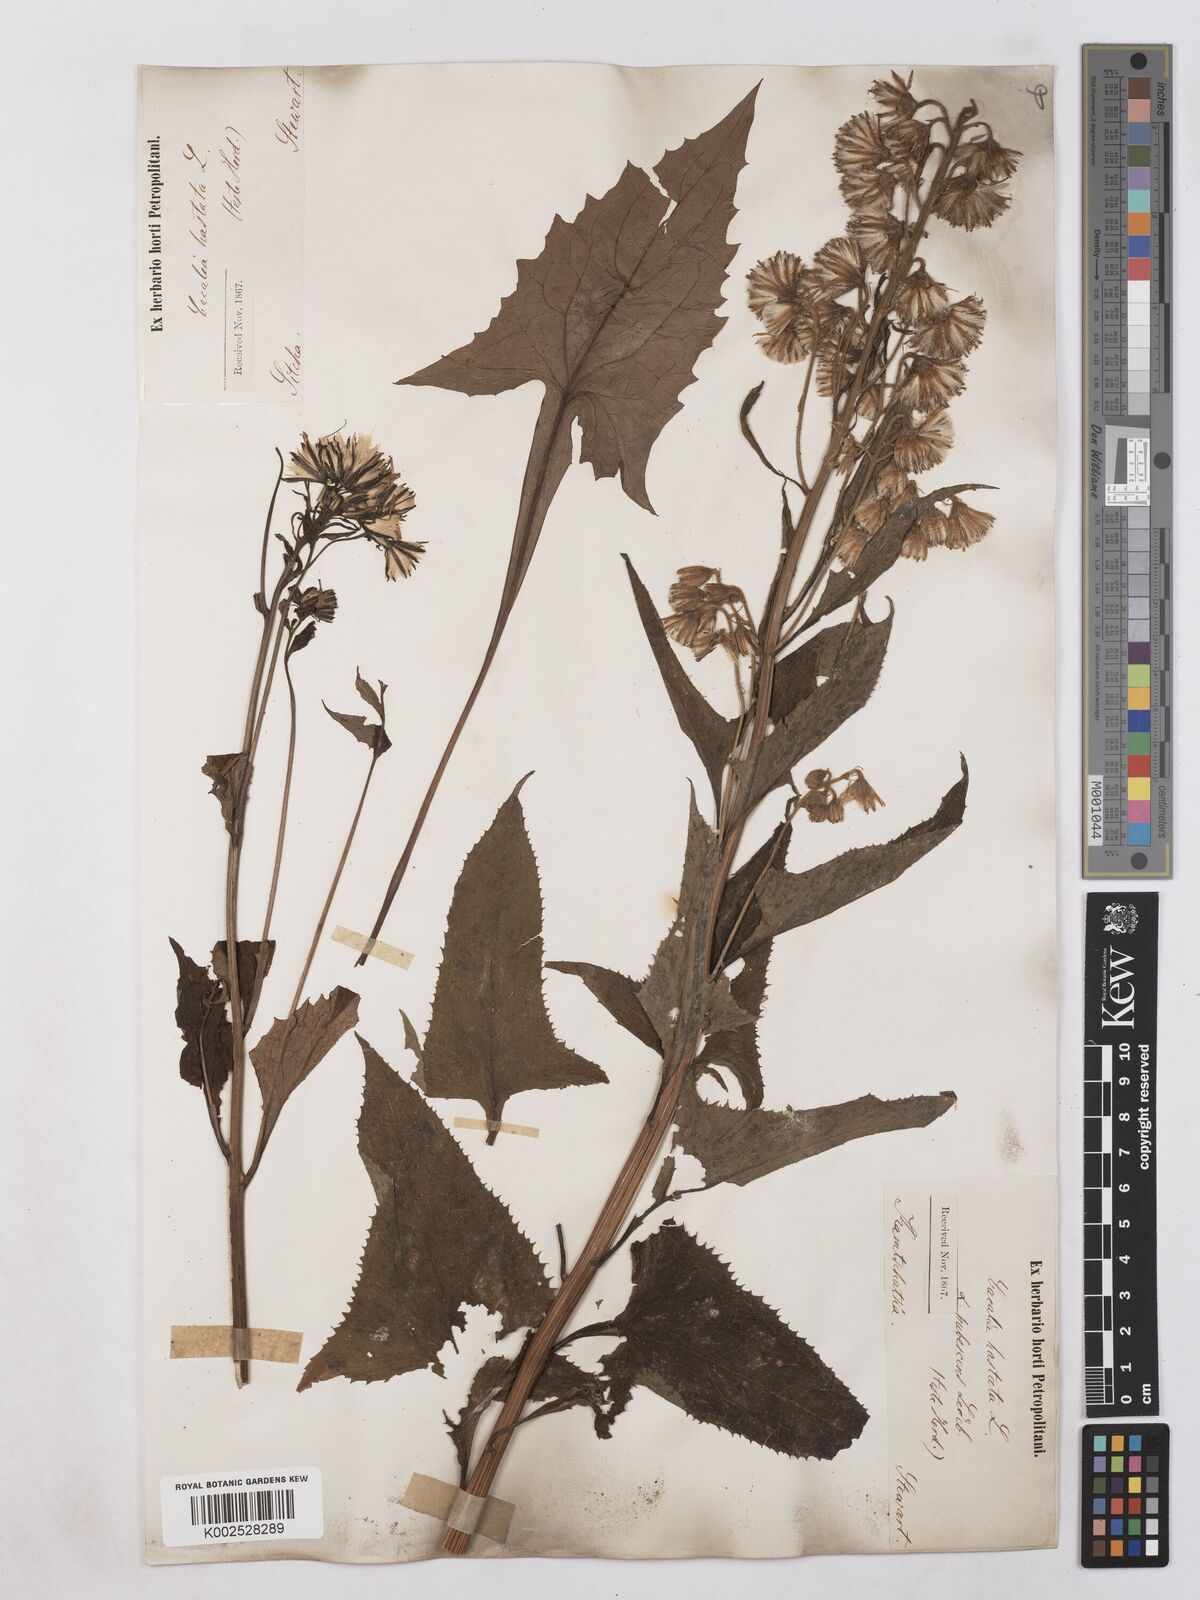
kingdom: Plantae
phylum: Tracheophyta
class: Magnoliopsida
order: Asterales
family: Asteraceae
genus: Parasenecio
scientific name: Parasenecio hastatus
